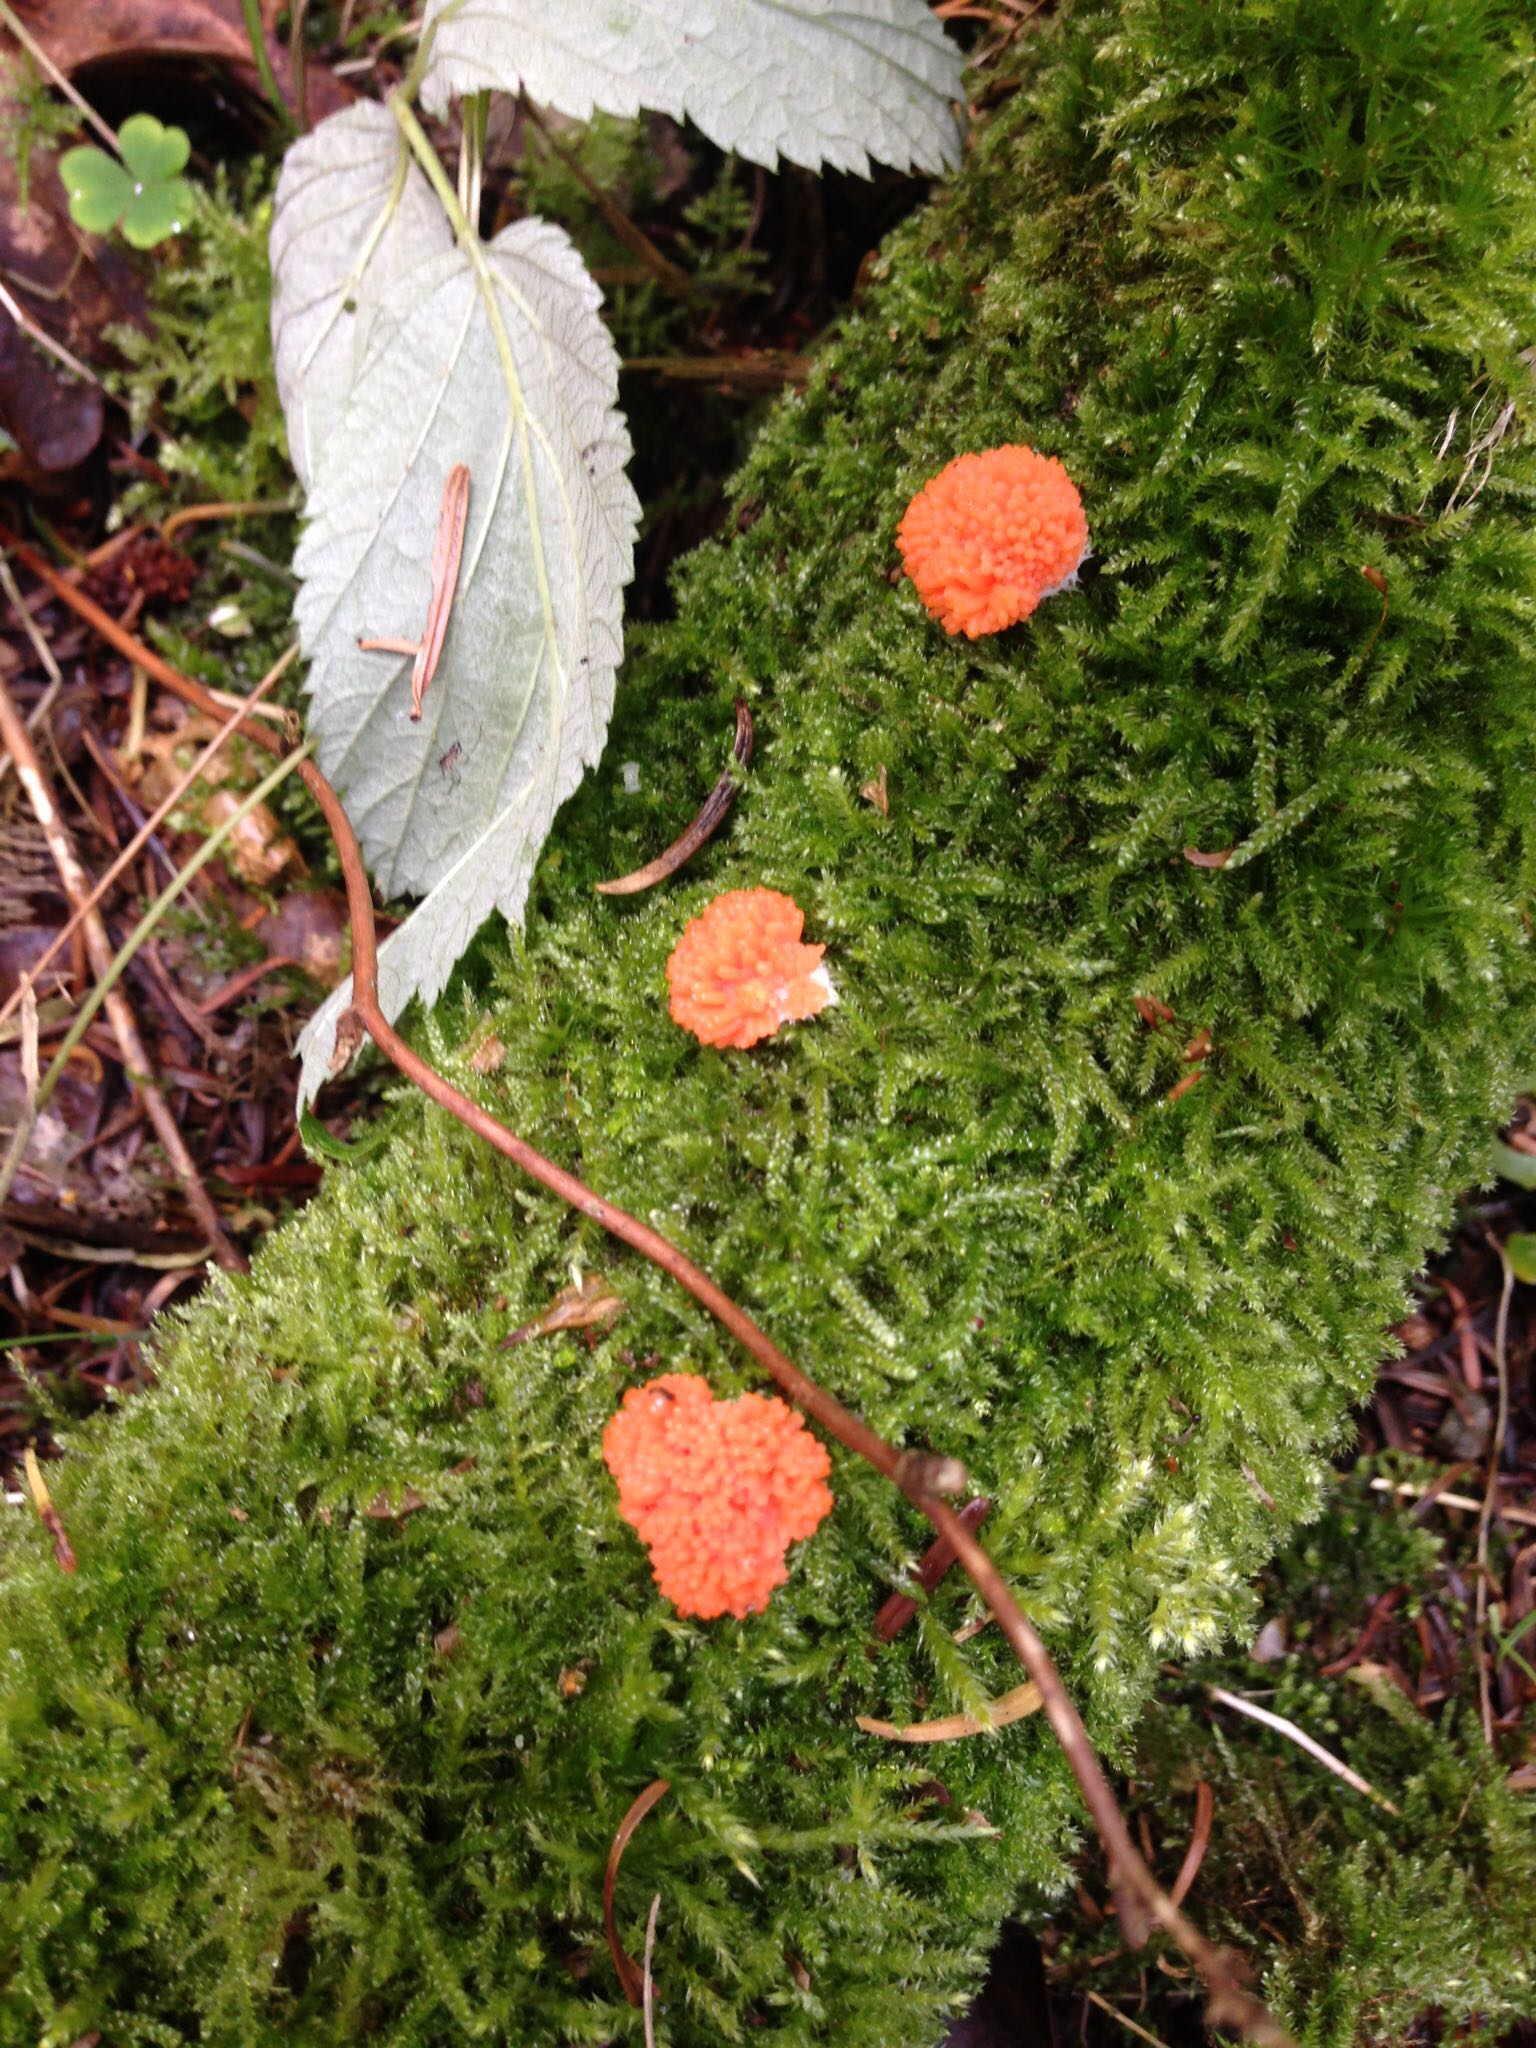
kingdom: Protozoa
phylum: Mycetozoa
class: Myxomycetes
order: Cribrariales
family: Tubiferaceae
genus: Tubifera
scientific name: Tubifera ferruginosa
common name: kanel-støvrør
